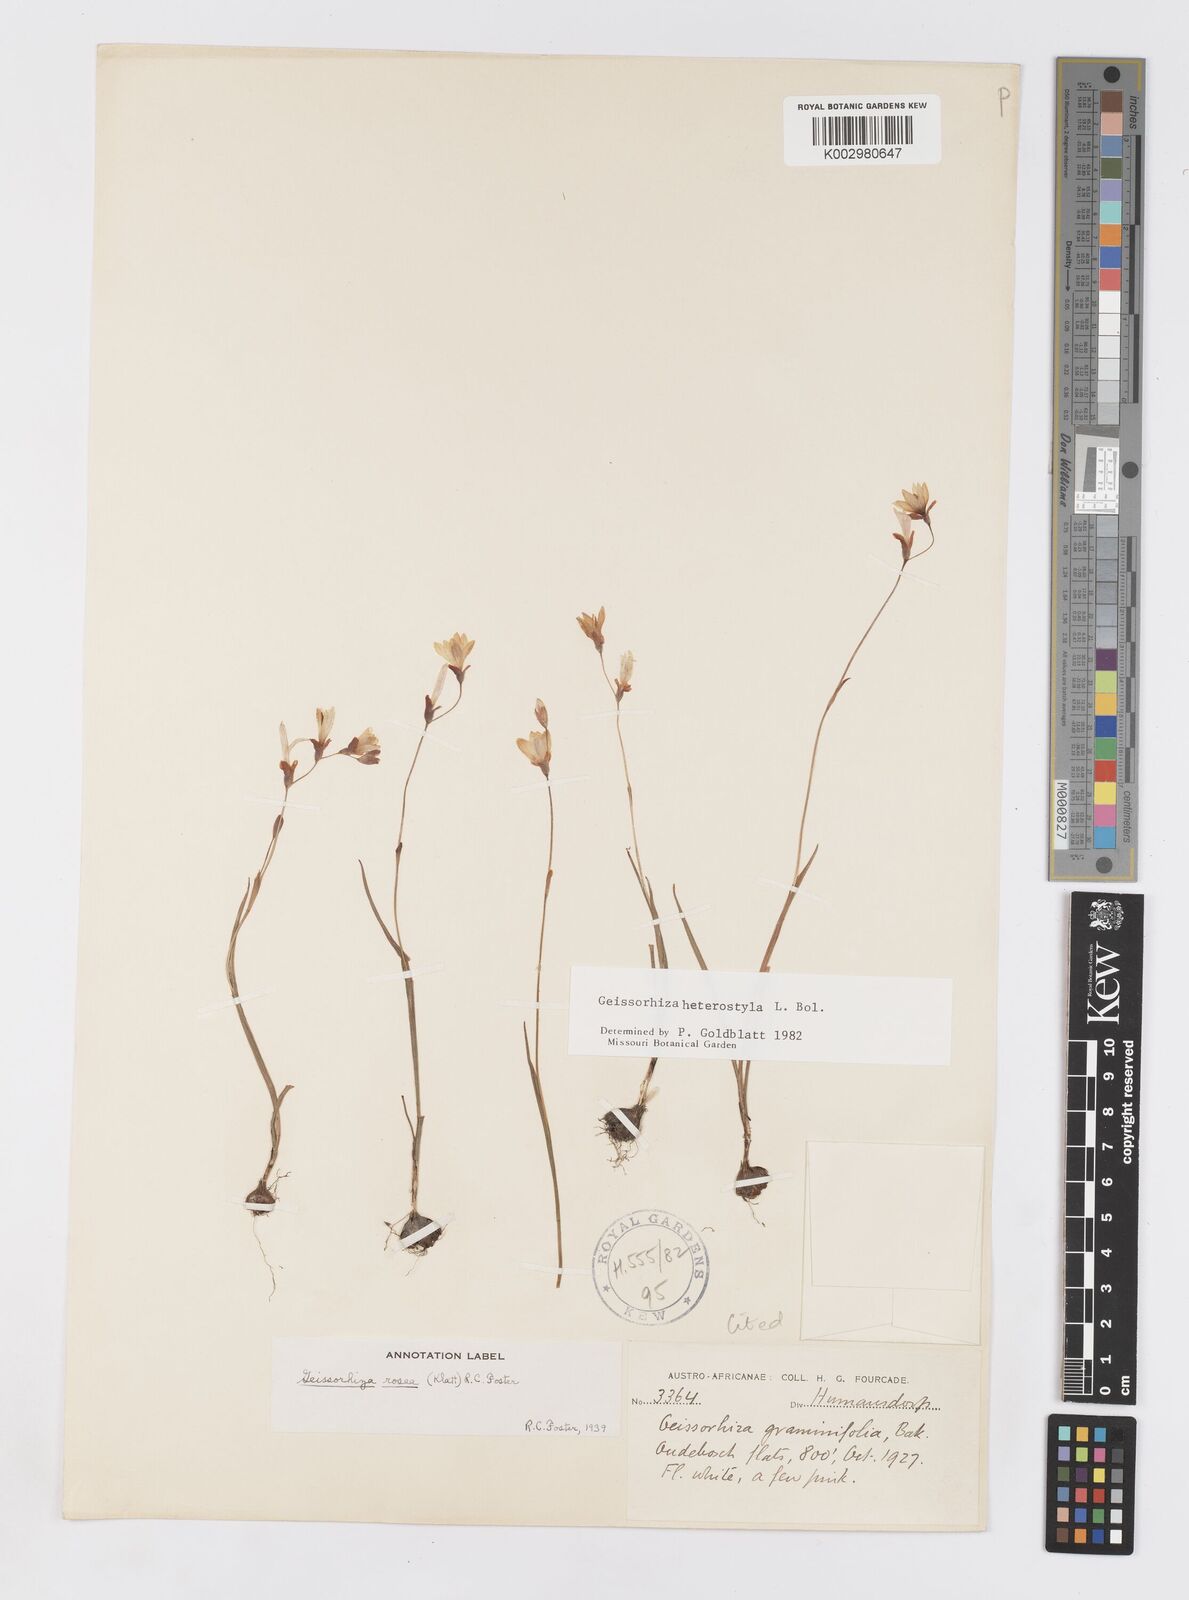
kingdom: Plantae
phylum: Tracheophyta
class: Liliopsida
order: Asparagales
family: Iridaceae
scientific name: Iridaceae
